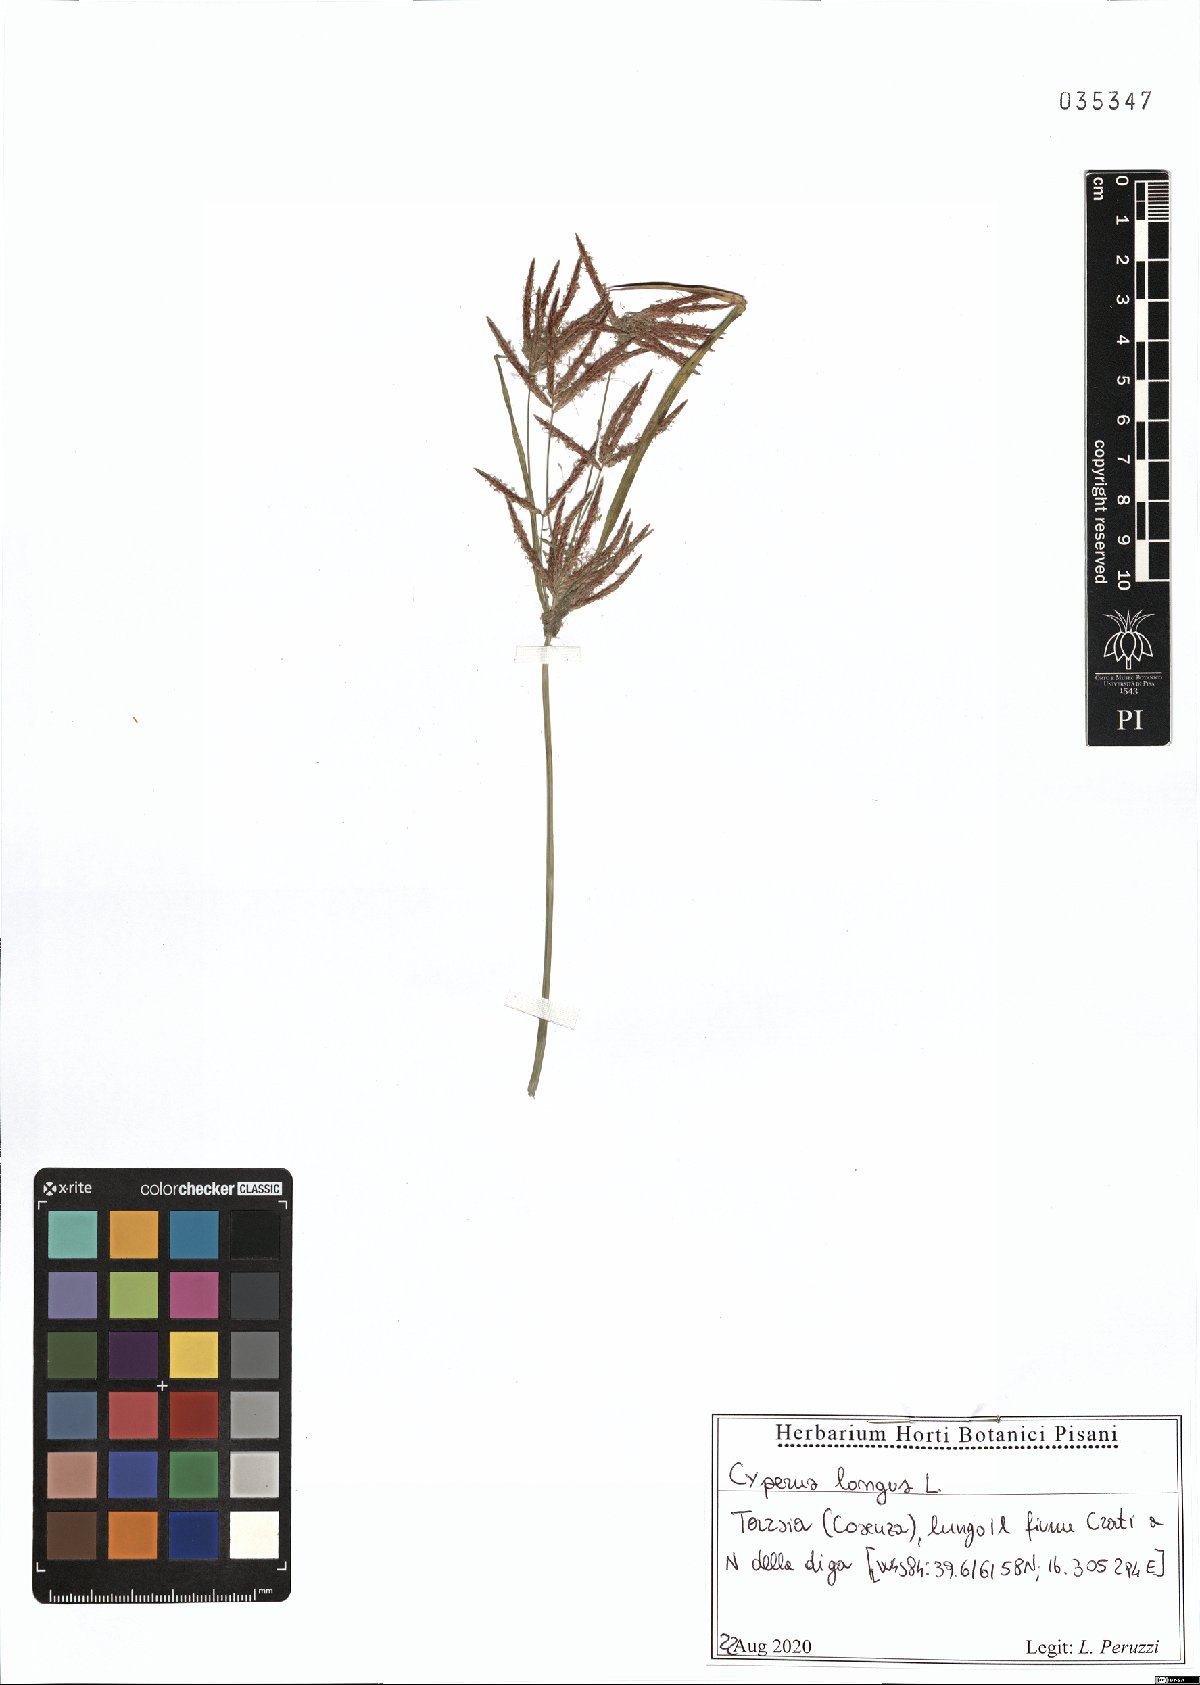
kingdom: Plantae
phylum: Tracheophyta
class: Liliopsida
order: Poales
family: Cyperaceae
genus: Cyperus
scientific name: Cyperus longus
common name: Galingale
